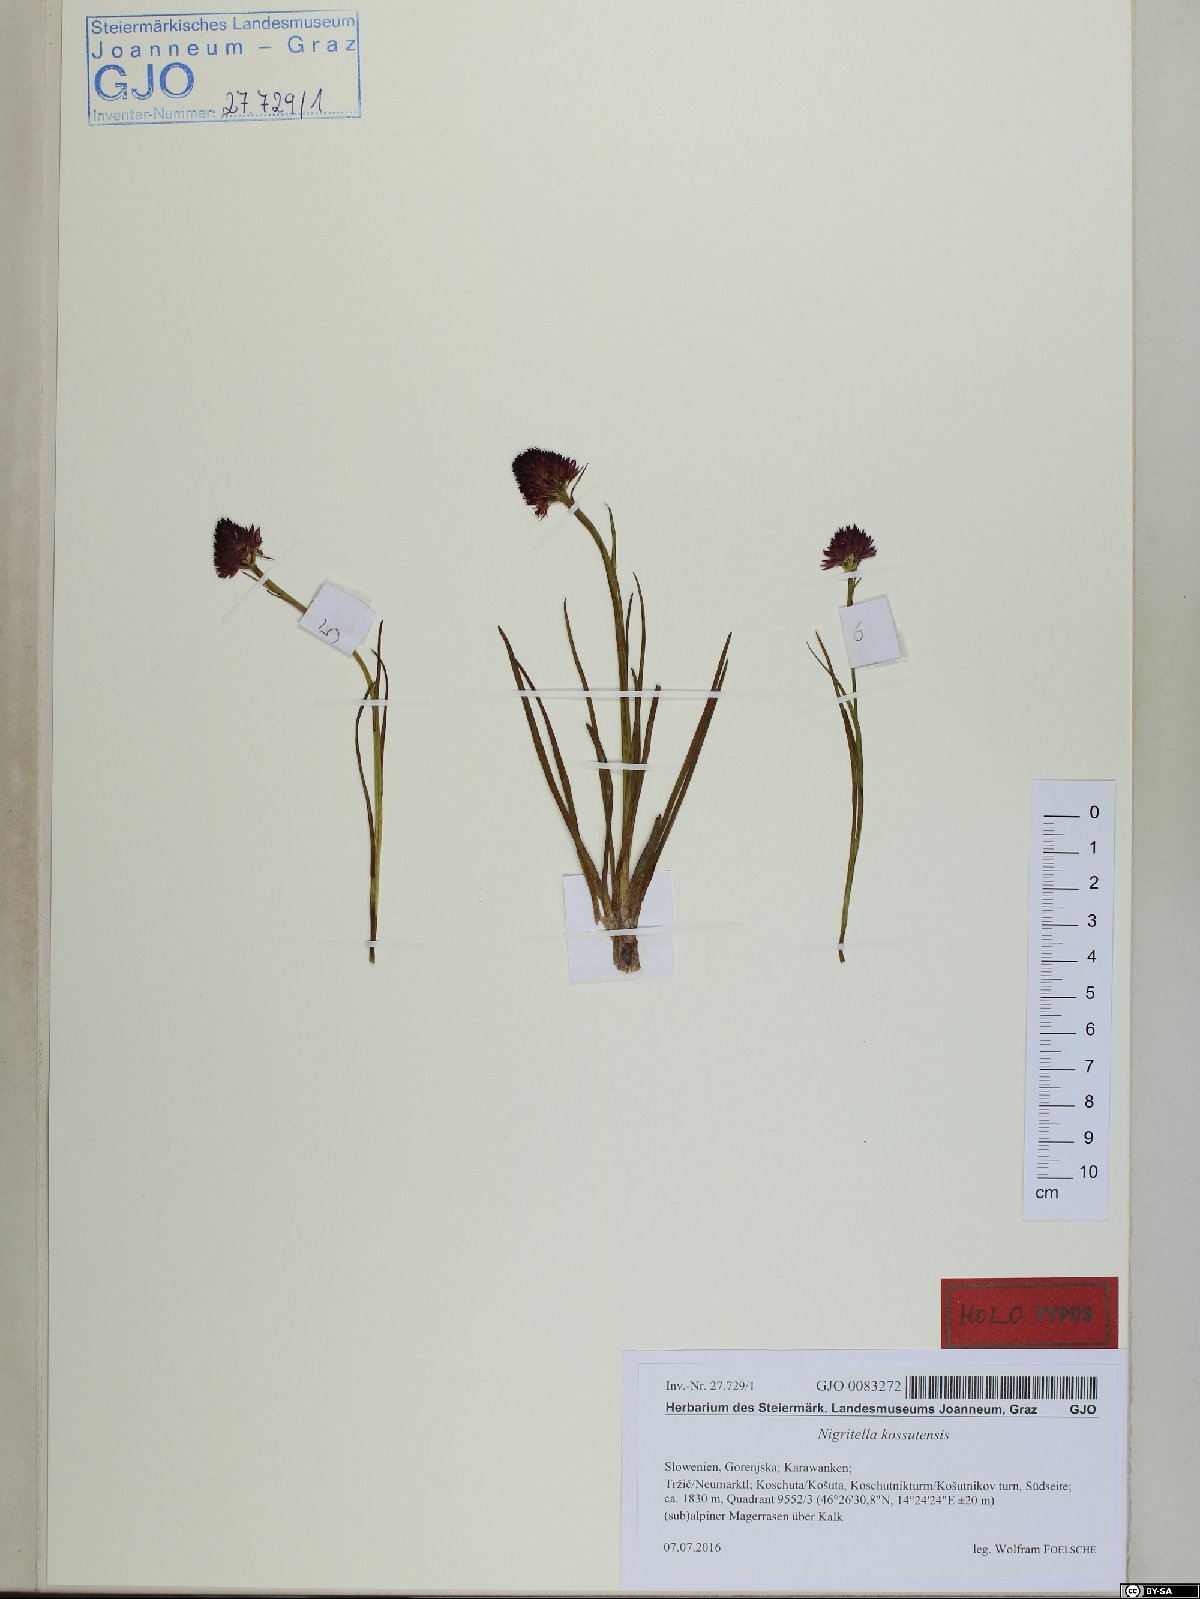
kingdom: Plantae
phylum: Tracheophyta
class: Liliopsida
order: Asparagales
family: Orchidaceae
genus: Gymnadenia
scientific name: Gymnadenia kossutensis
